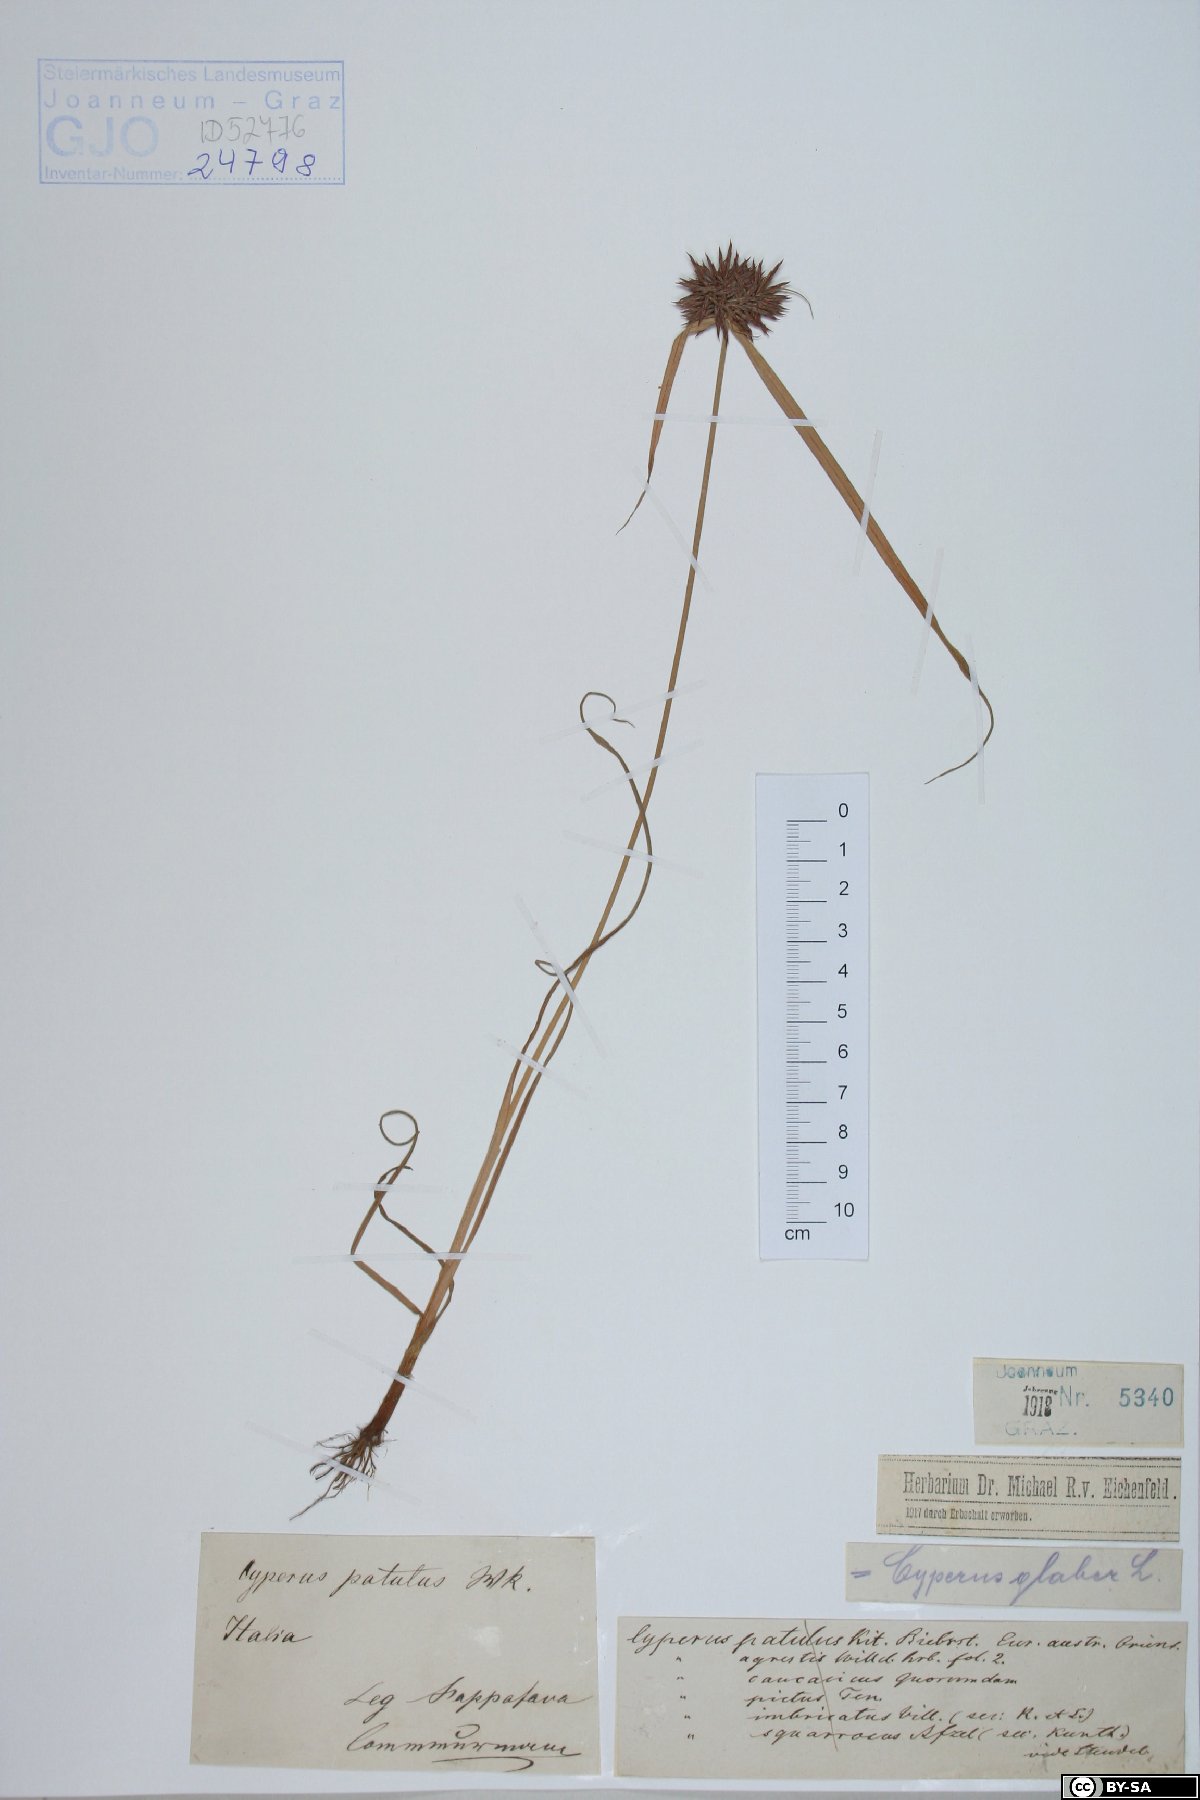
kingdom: Plantae
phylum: Tracheophyta
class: Liliopsida
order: Poales
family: Cyperaceae
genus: Cyperus
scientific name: Cyperus glaber
